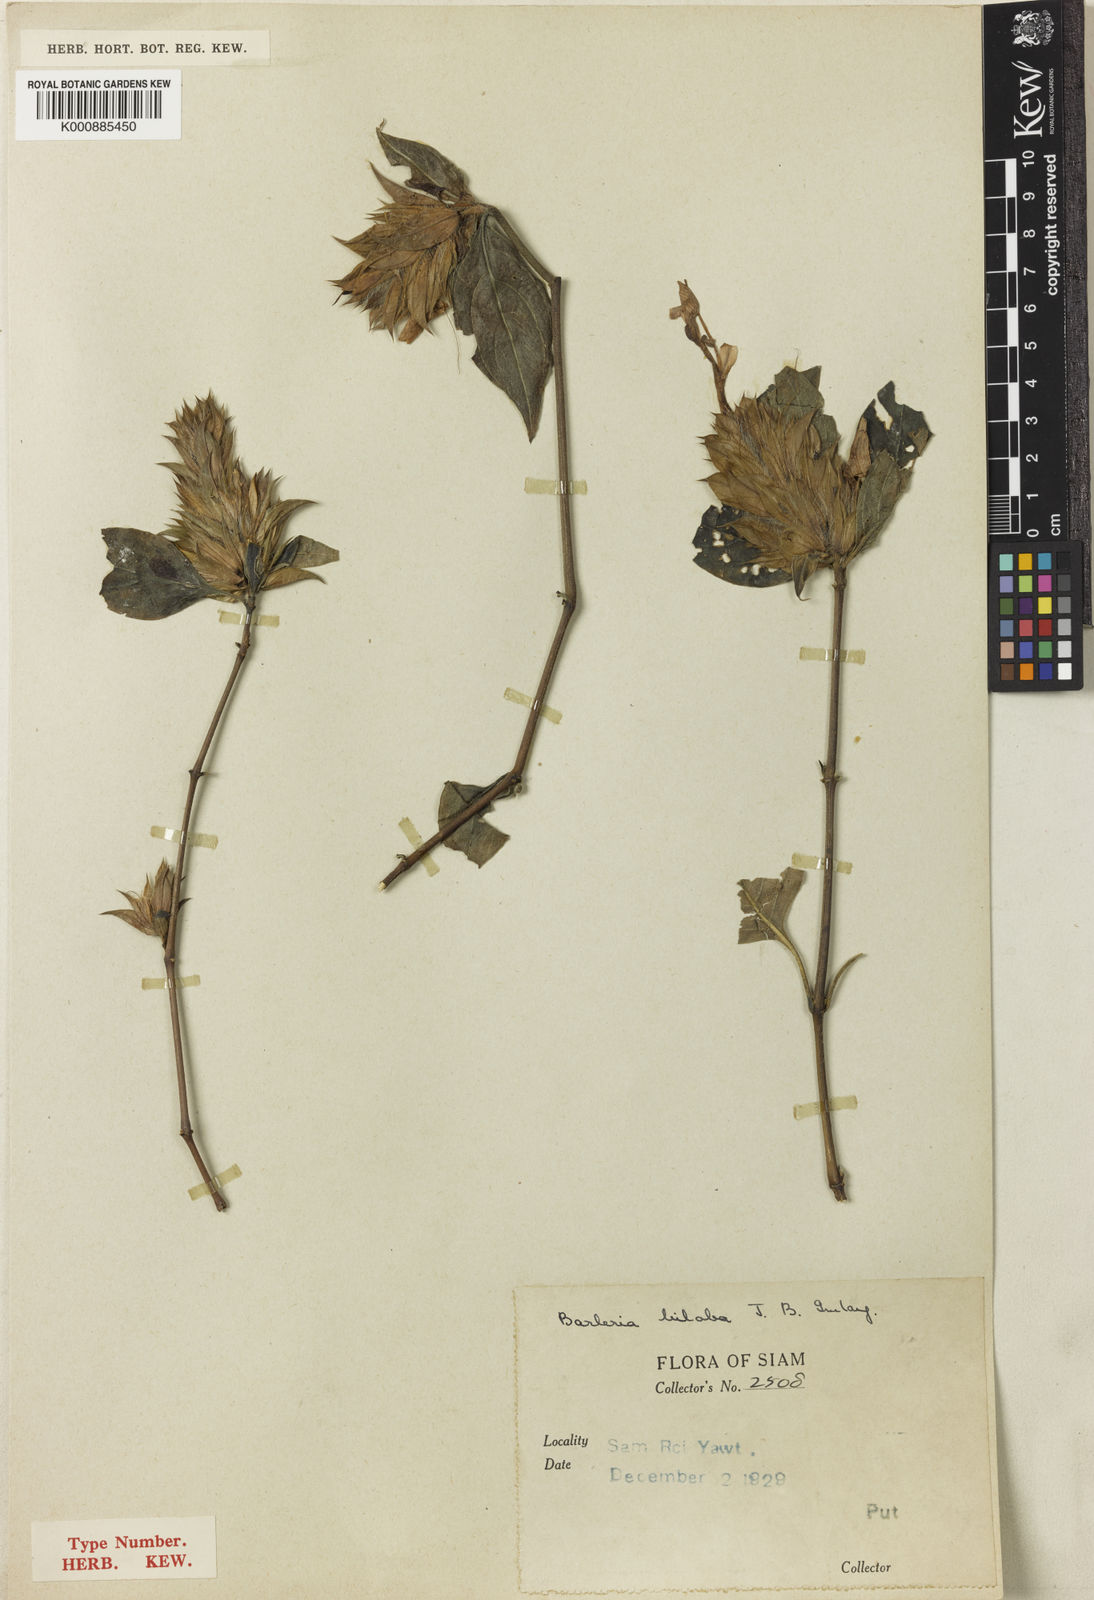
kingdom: Plantae
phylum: Tracheophyta
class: Magnoliopsida
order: Lamiales
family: Acanthaceae
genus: Barleria
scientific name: Barleria biloba
